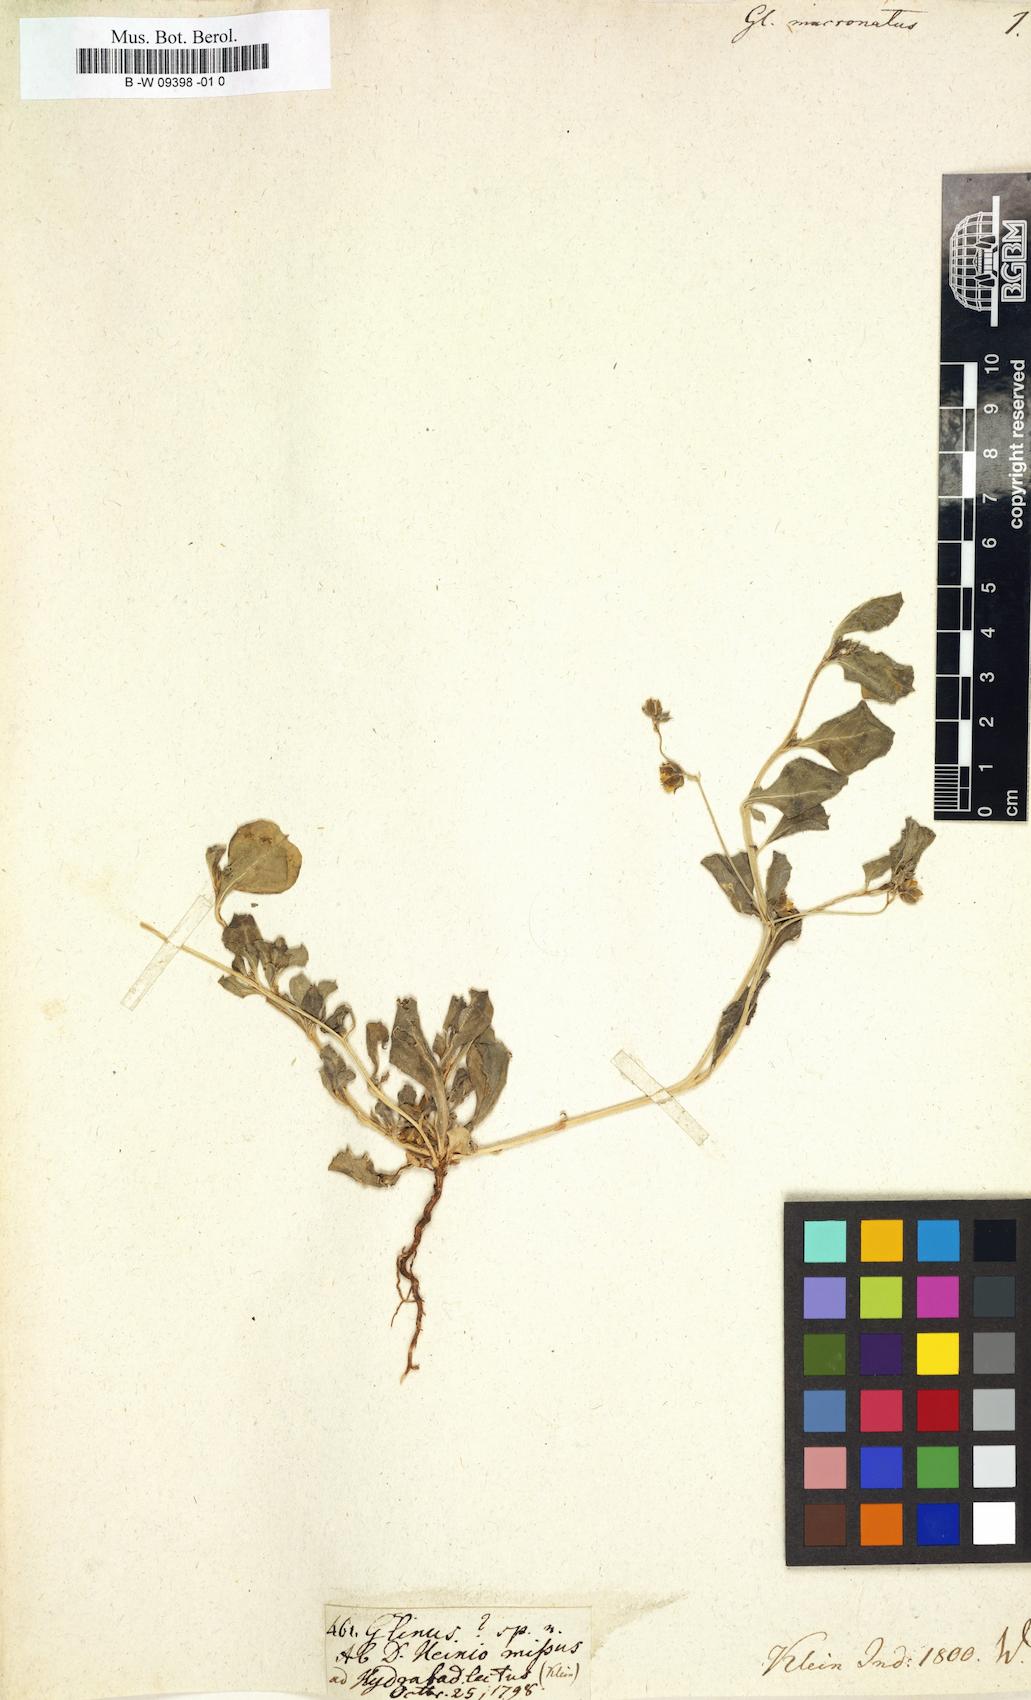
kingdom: Plantae
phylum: Tracheophyta
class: Magnoliopsida
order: Caryophyllales
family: Corbichoniaceae
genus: Corbichonia
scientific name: Corbichonia decumbens
